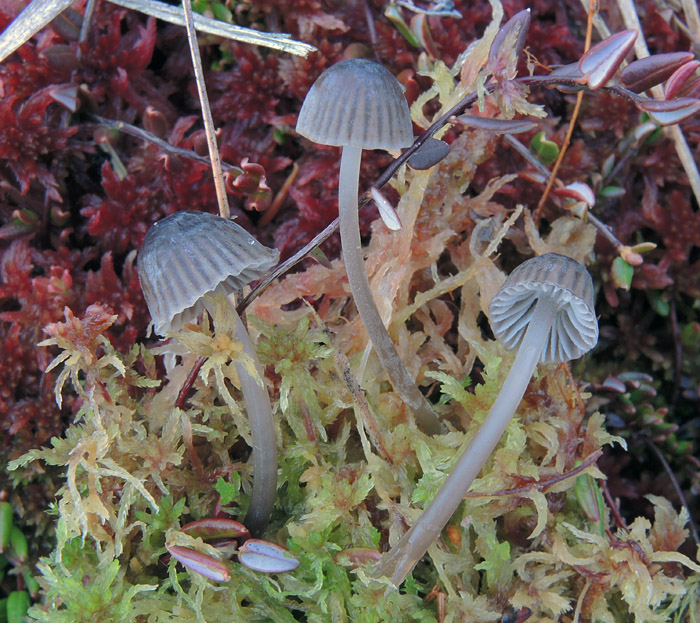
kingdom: Fungi
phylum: Basidiomycota
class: Agaricomycetes
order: Agaricales
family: Mycenaceae
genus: Mycena
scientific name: Mycena concolor
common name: tørvemos-huesvamp
